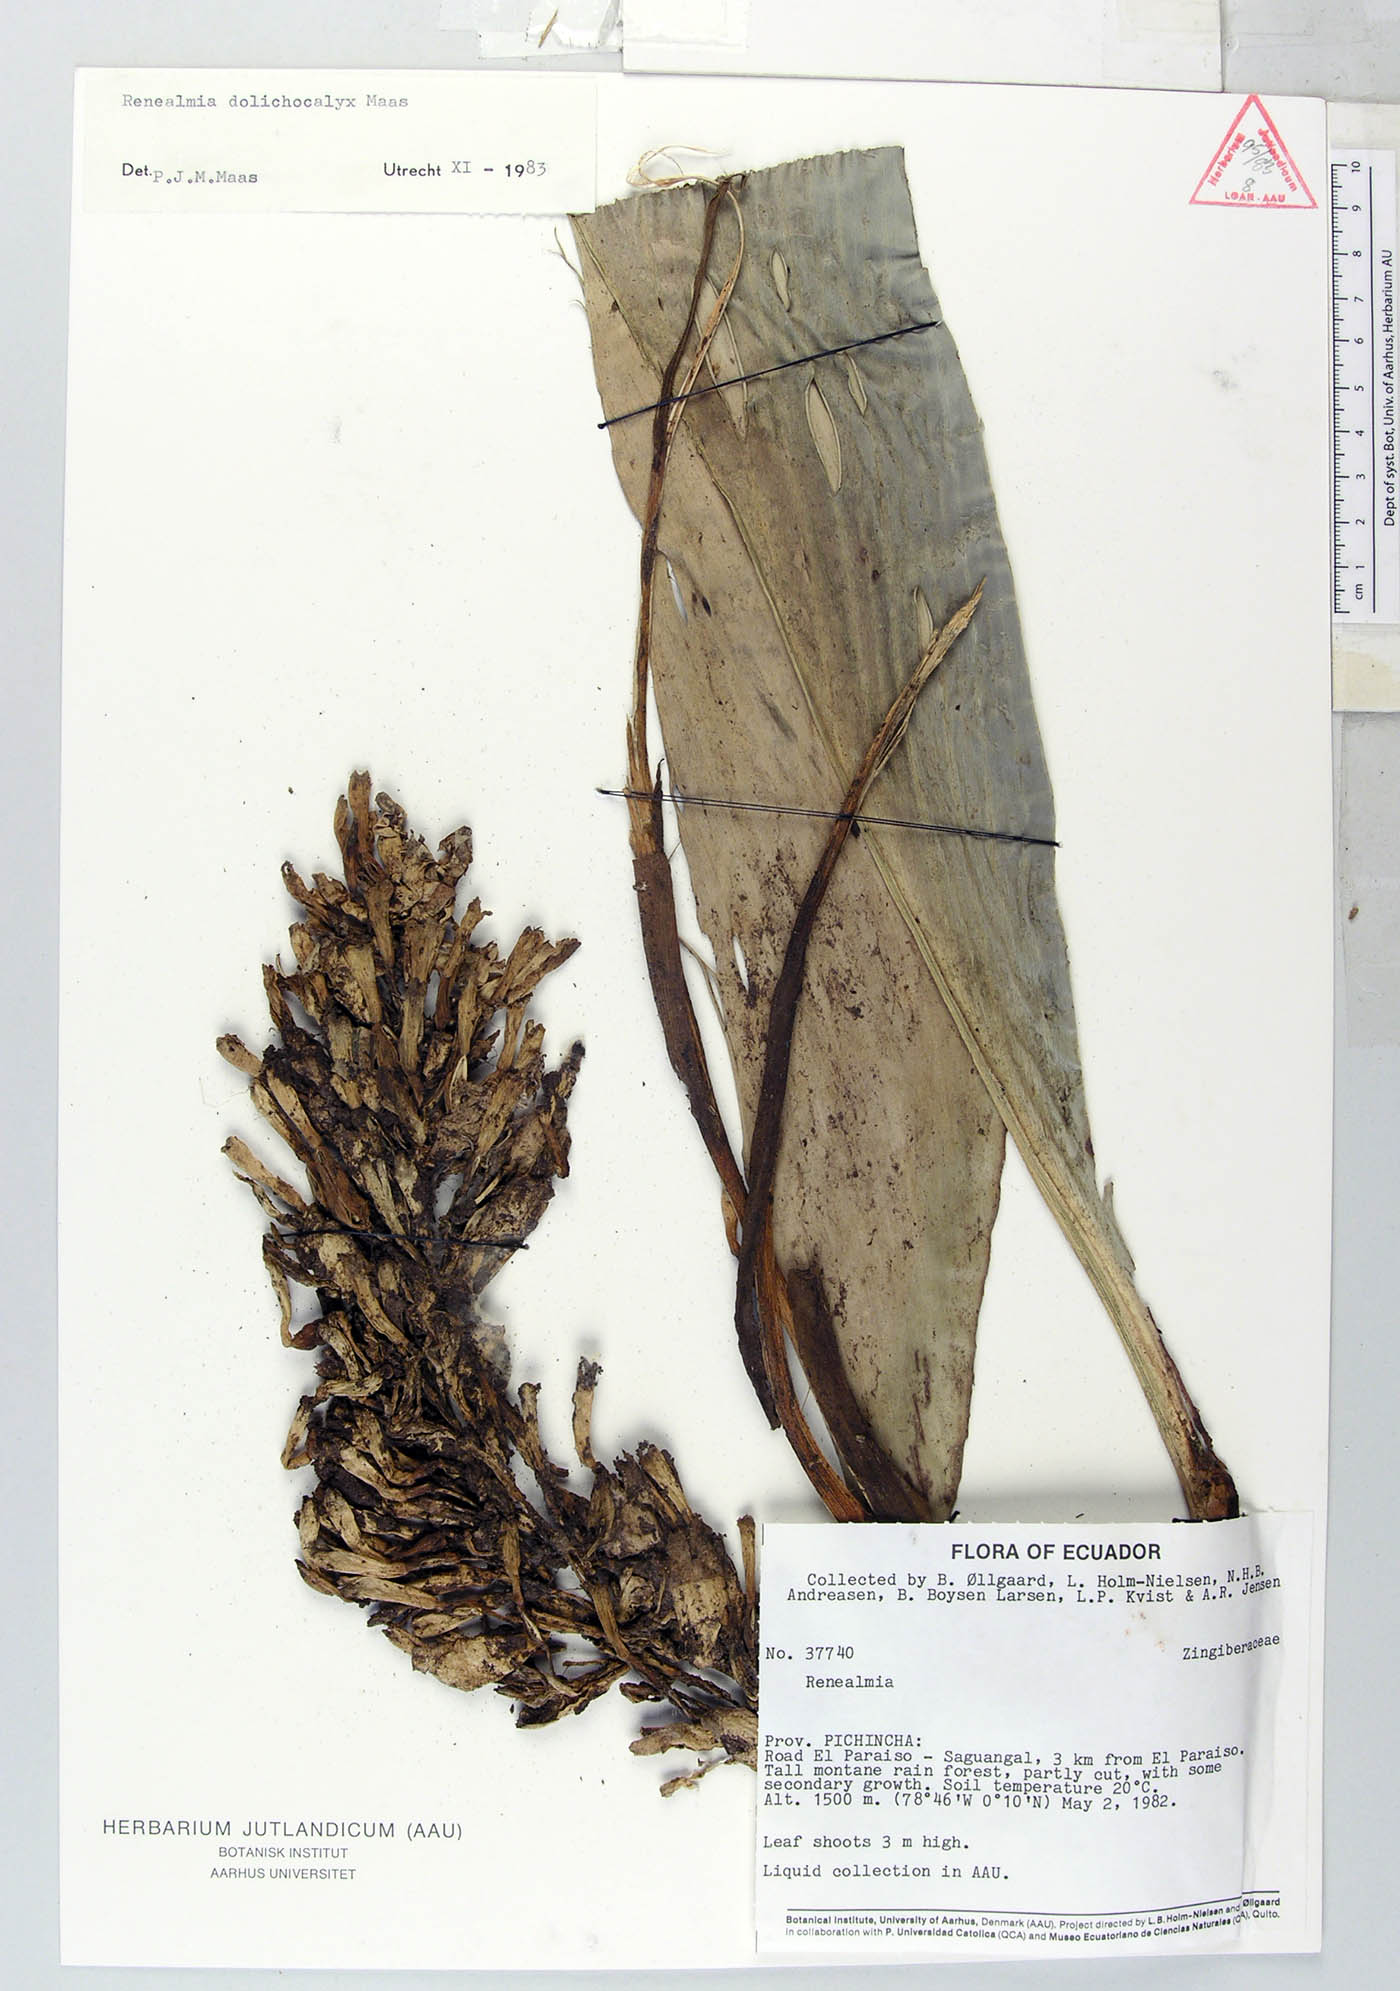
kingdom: Plantae
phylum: Tracheophyta
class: Liliopsida
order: Zingiberales
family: Zingiberaceae
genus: Renealmia
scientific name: Renealmia
